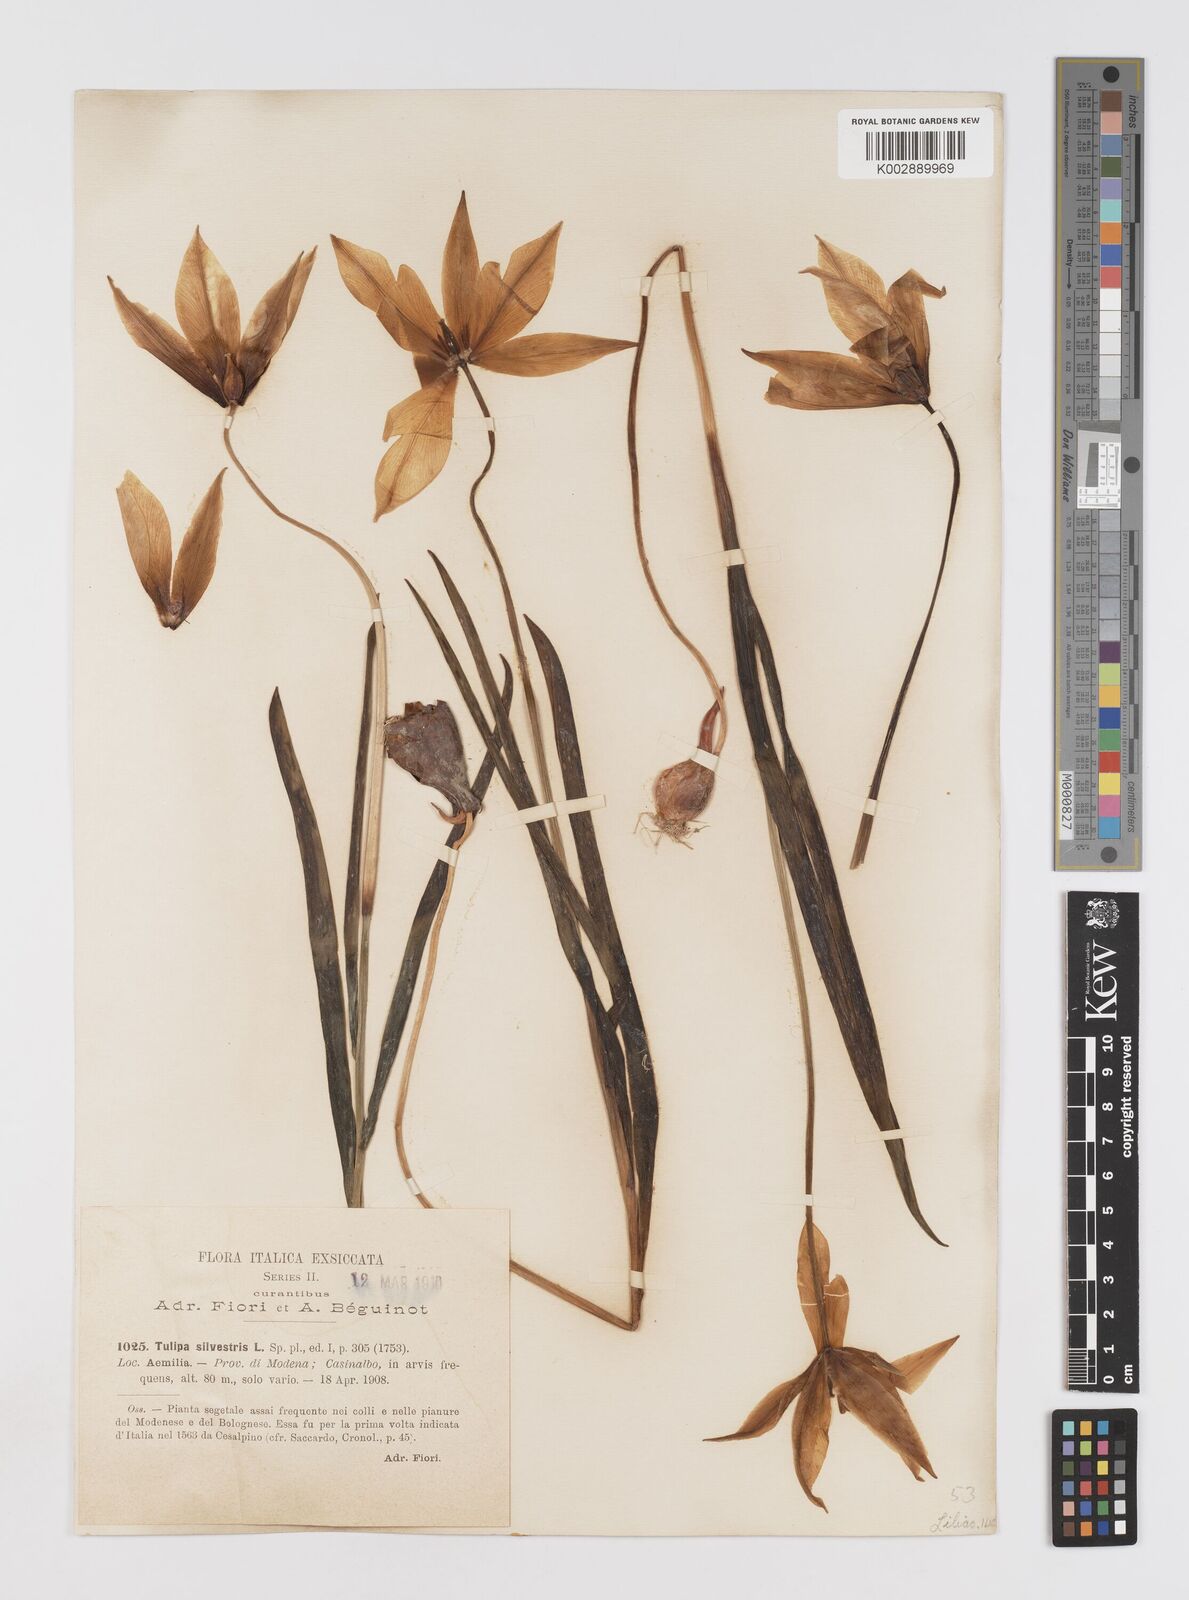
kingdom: Plantae
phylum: Tracheophyta
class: Liliopsida
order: Liliales
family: Liliaceae
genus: Tulipa
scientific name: Tulipa sylvestris
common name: Wild tulip
